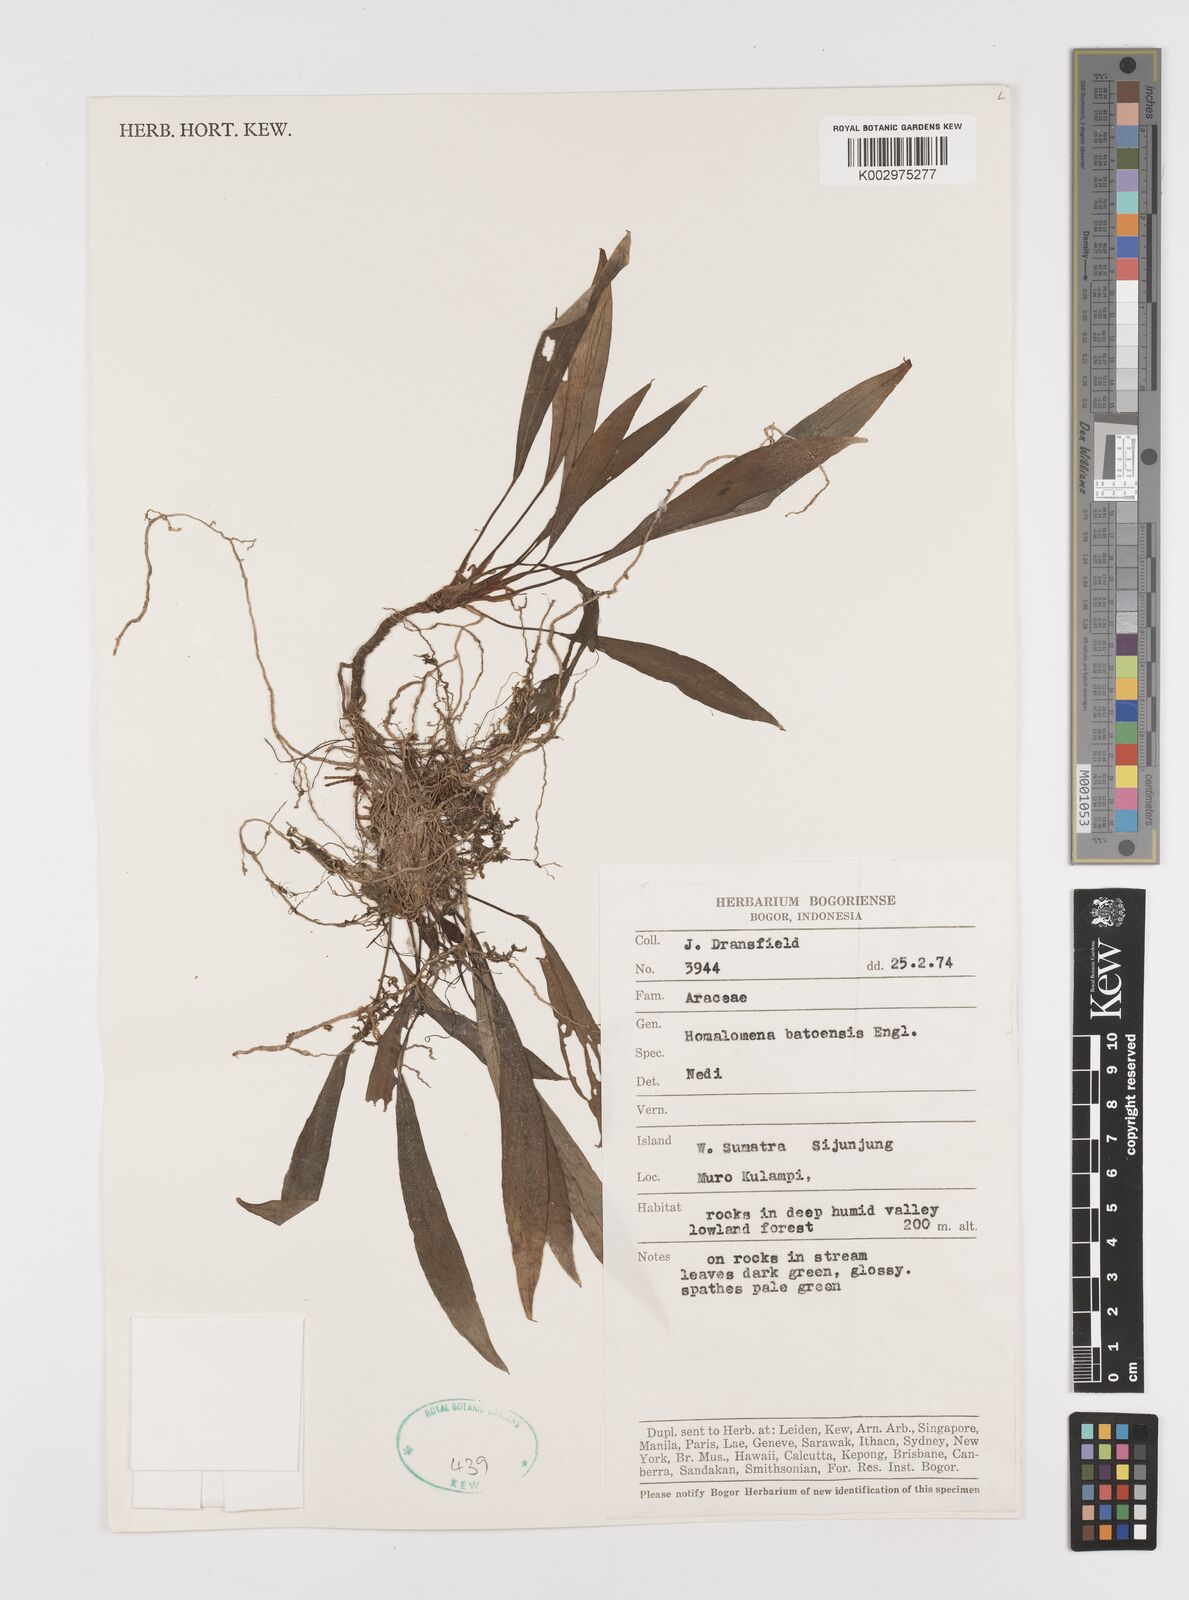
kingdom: Plantae
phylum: Tracheophyta
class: Liliopsida
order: Alismatales
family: Araceae
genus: Homalomena
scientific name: Homalomena batoeensis
